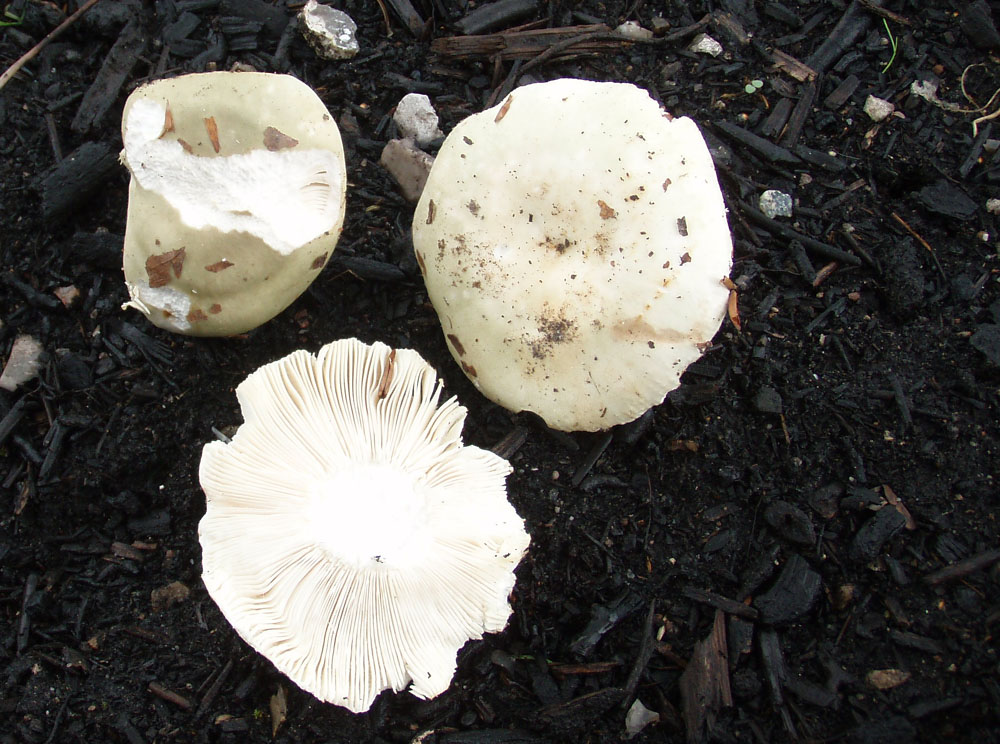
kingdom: Fungi
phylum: Basidiomycota
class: Agaricomycetes
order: Russulales
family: Russulaceae
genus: Russula
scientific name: Russula aeruginea
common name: græsgrøn skørhat
